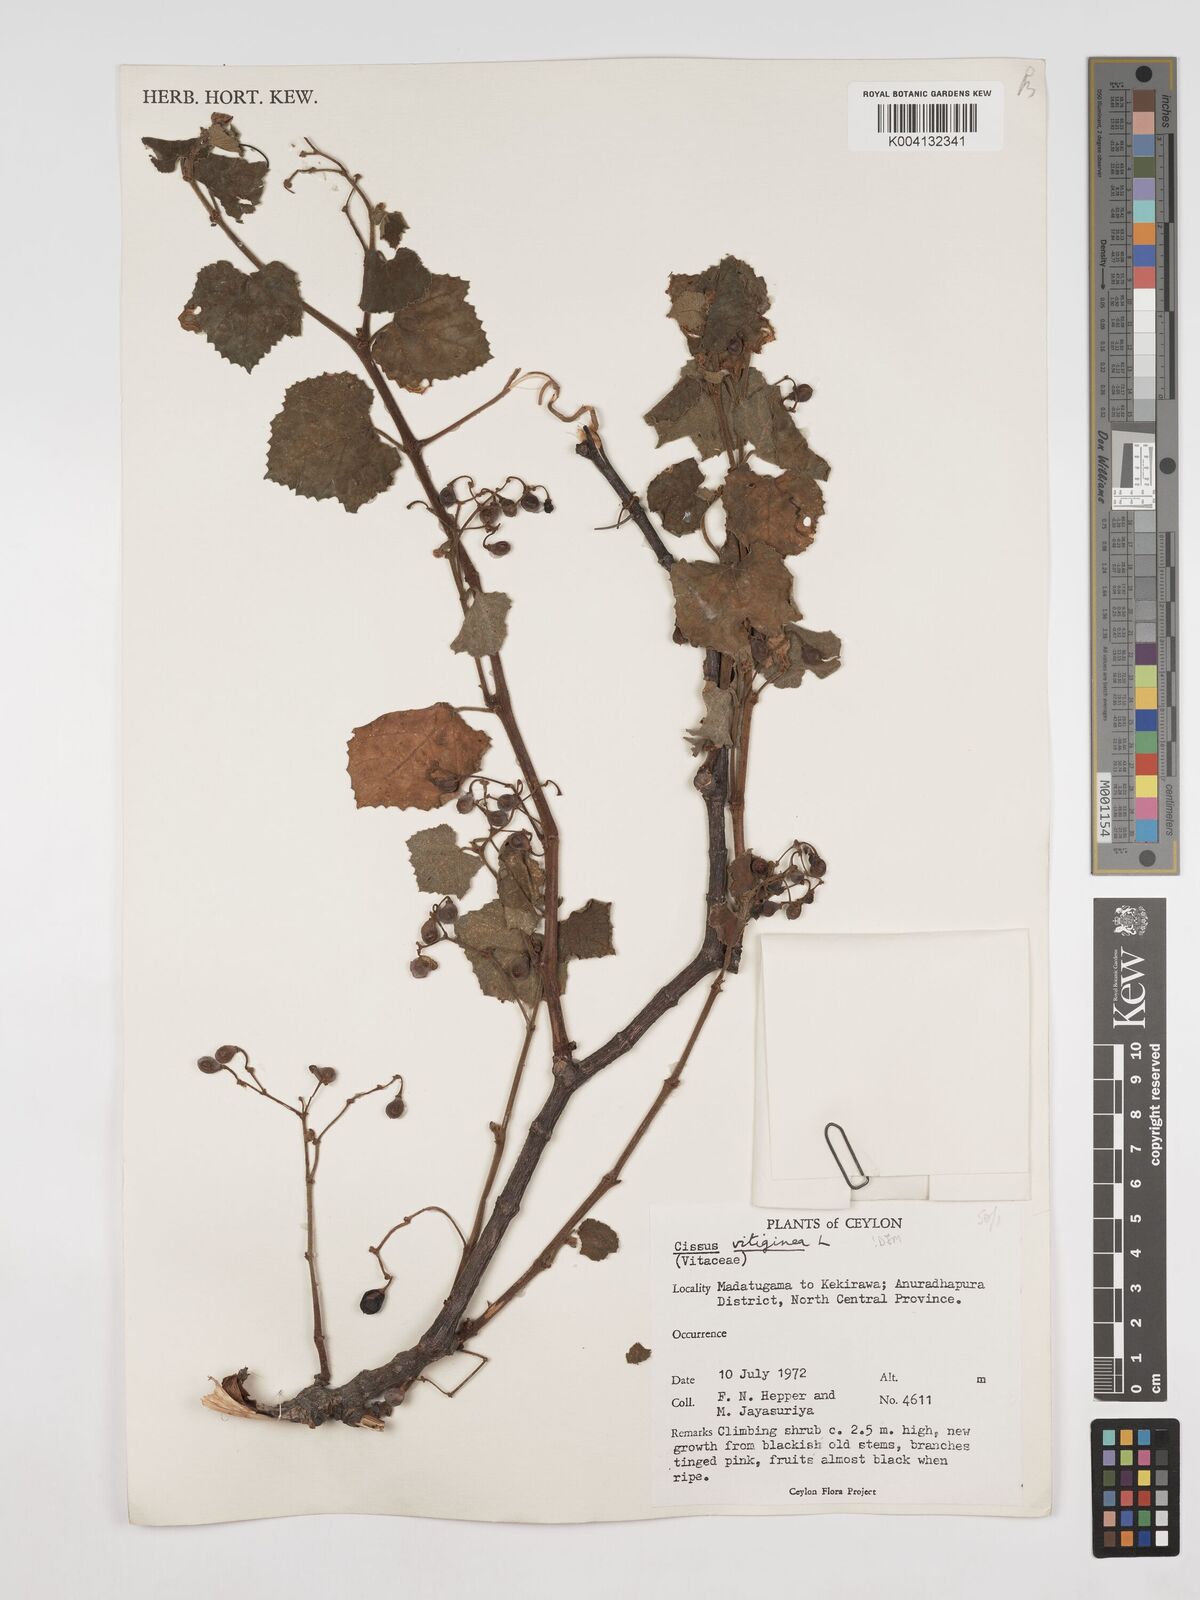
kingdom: Plantae
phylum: Tracheophyta
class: Magnoliopsida
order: Vitales
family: Vitaceae
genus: Cissus
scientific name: Cissus vitiginea
